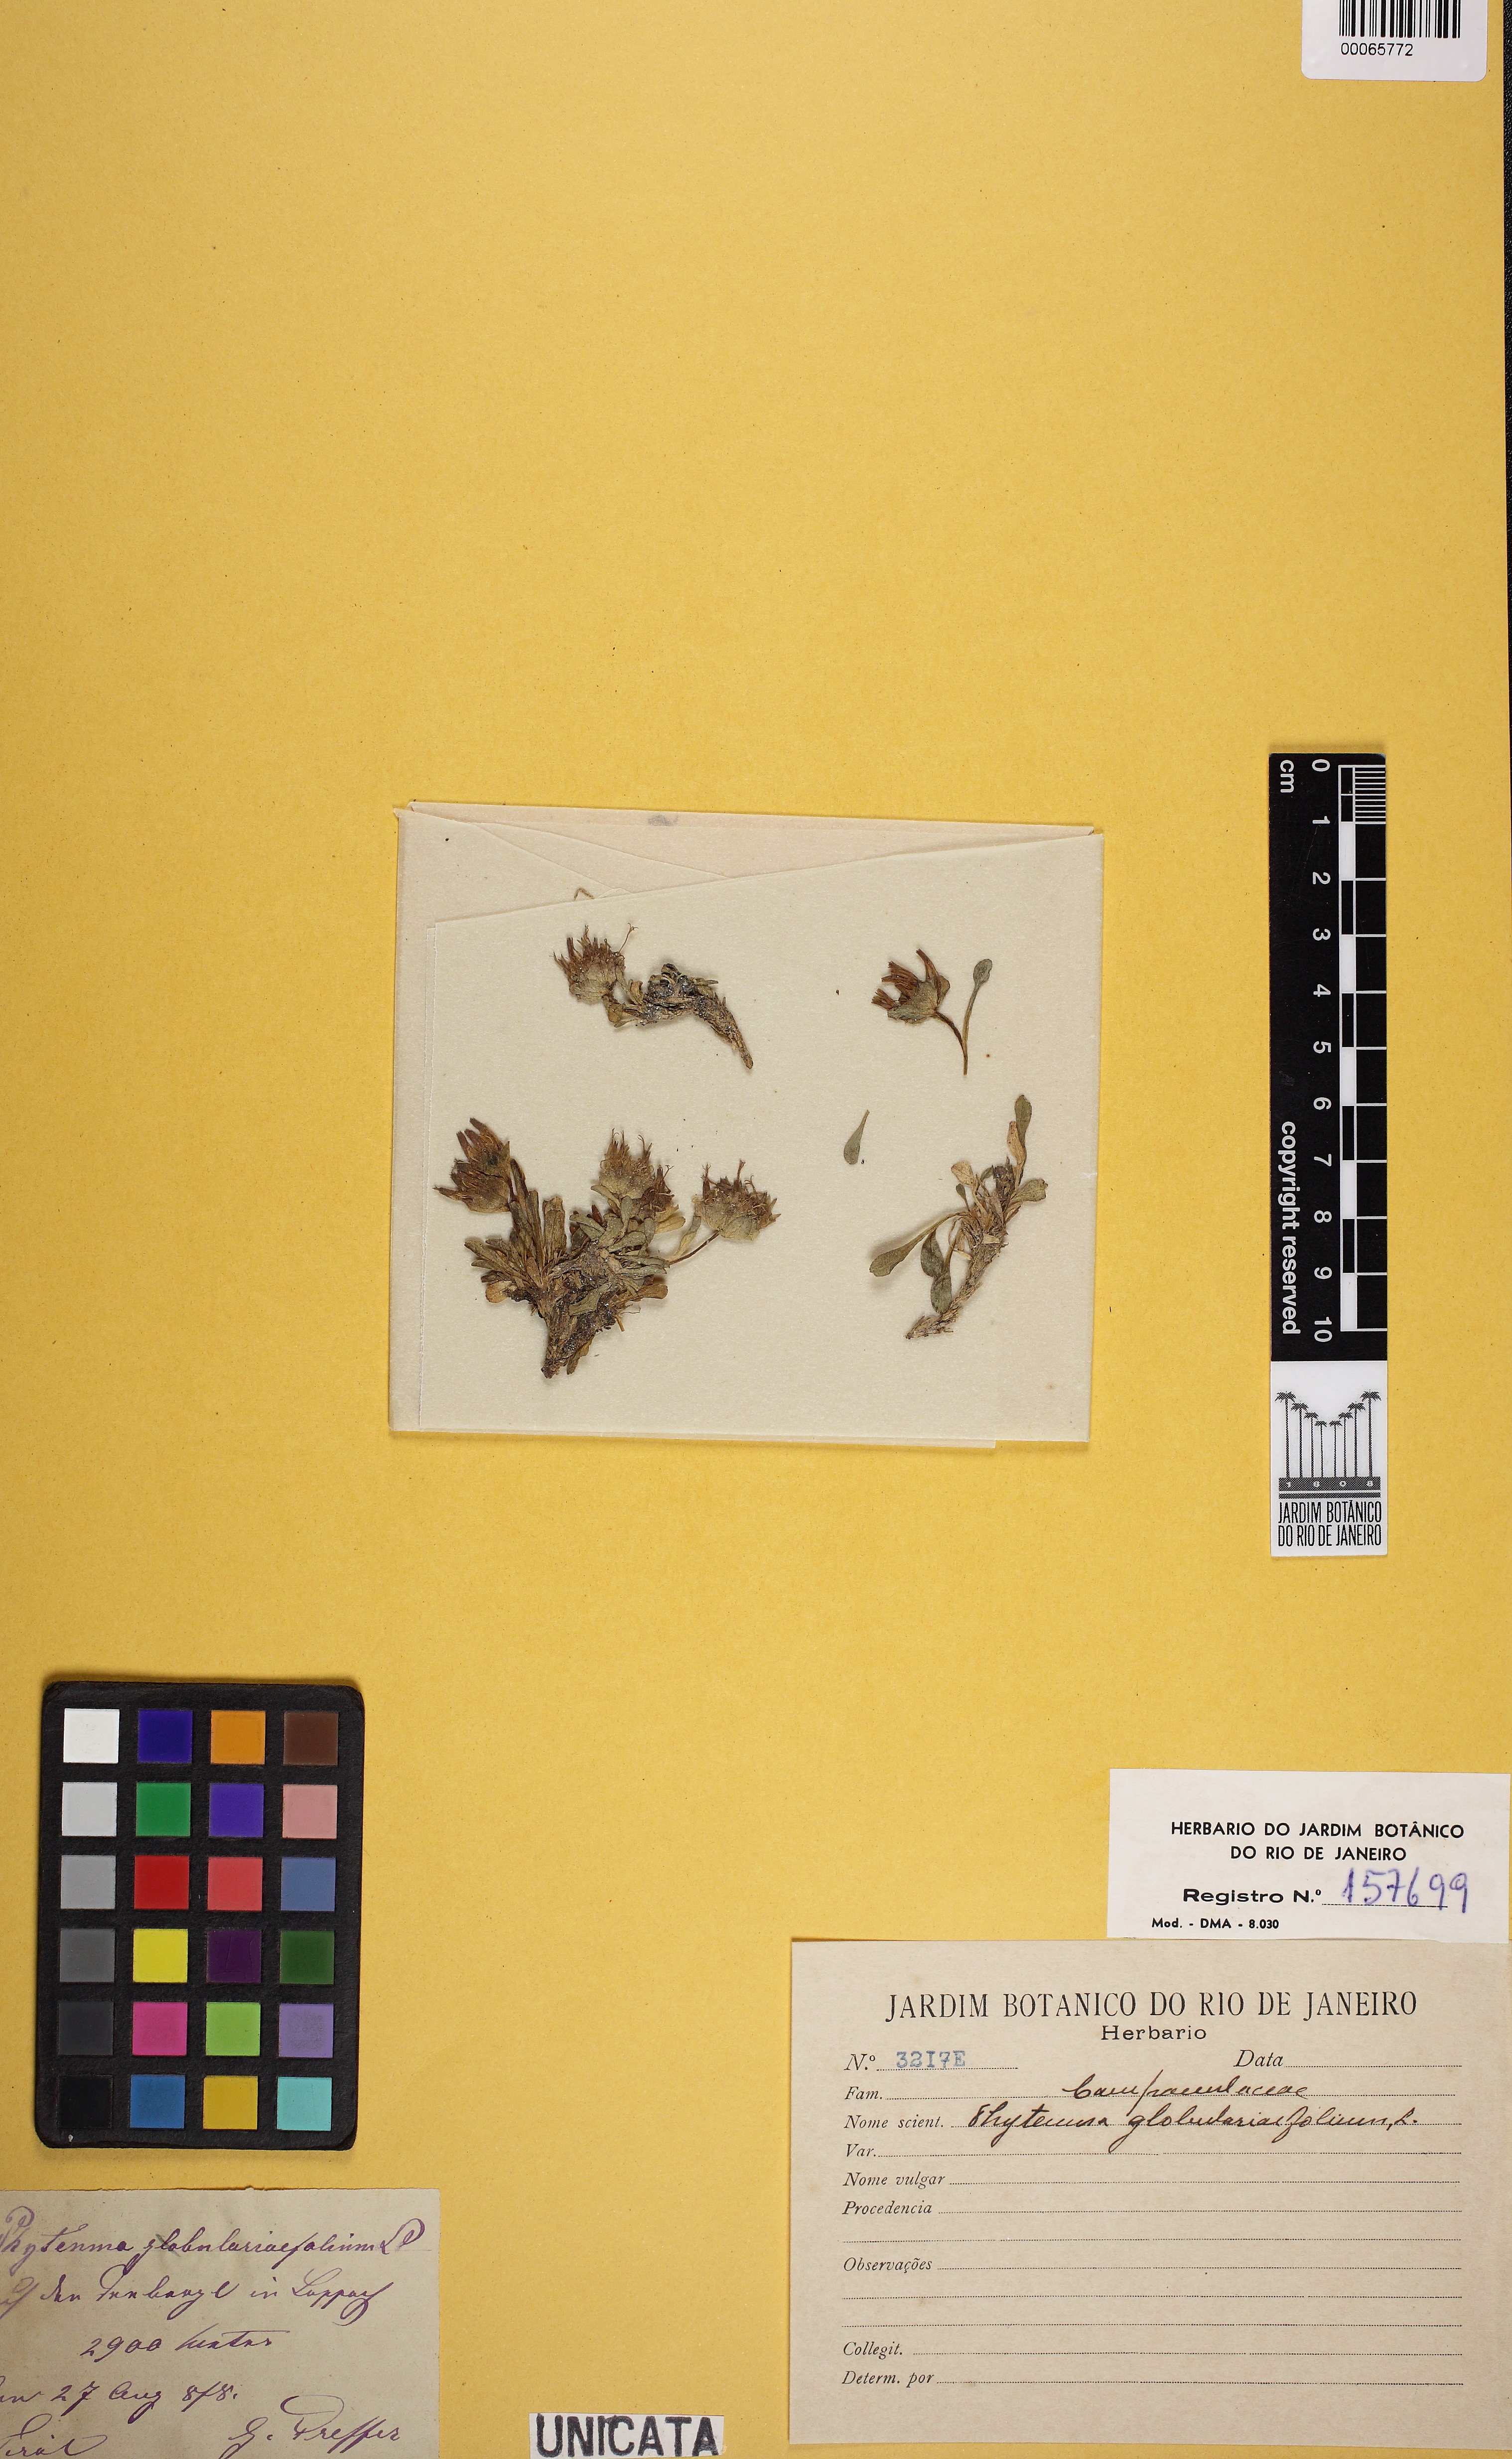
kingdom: Plantae
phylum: Tracheophyta
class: Magnoliopsida
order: Asterales
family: Campanulaceae
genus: Phyteuma
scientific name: Phyteuma
